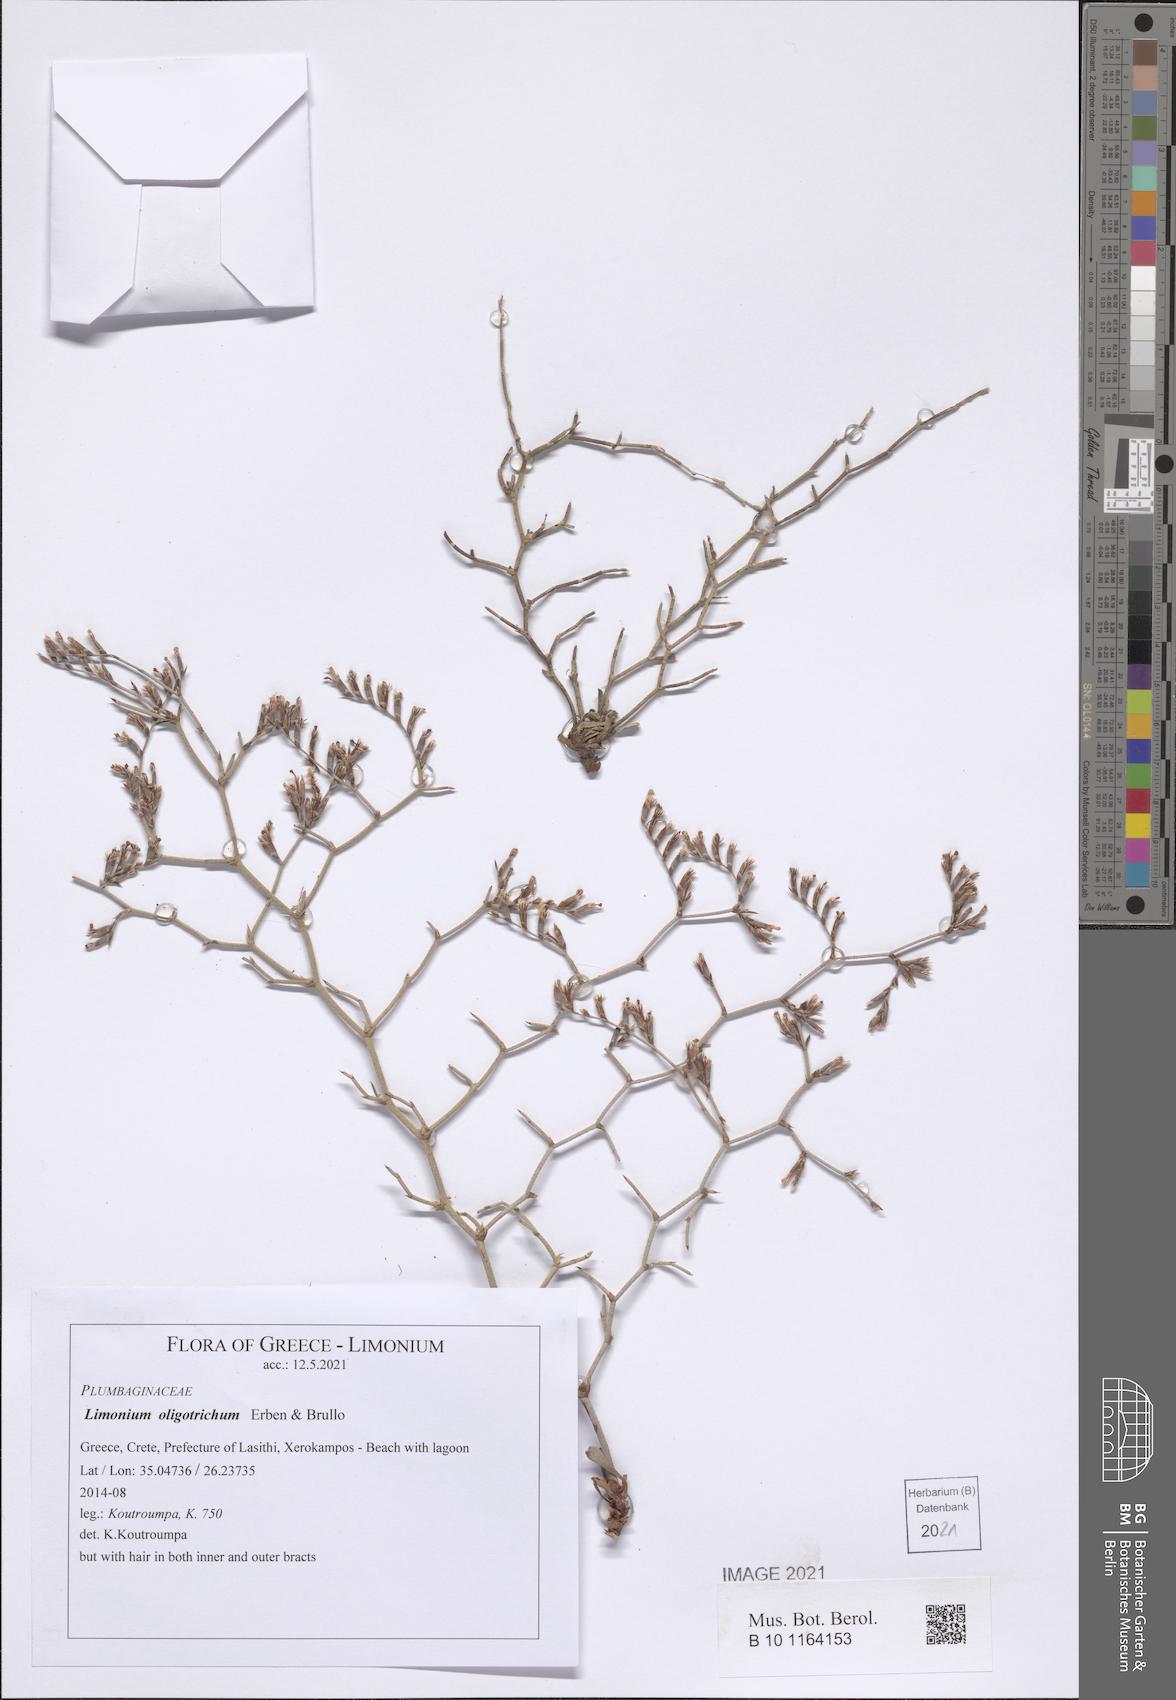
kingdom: Plantae
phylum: Tracheophyta
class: Magnoliopsida
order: Caryophyllales
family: Plumbaginaceae
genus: Limonium
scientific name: Limonium oligotrichum
